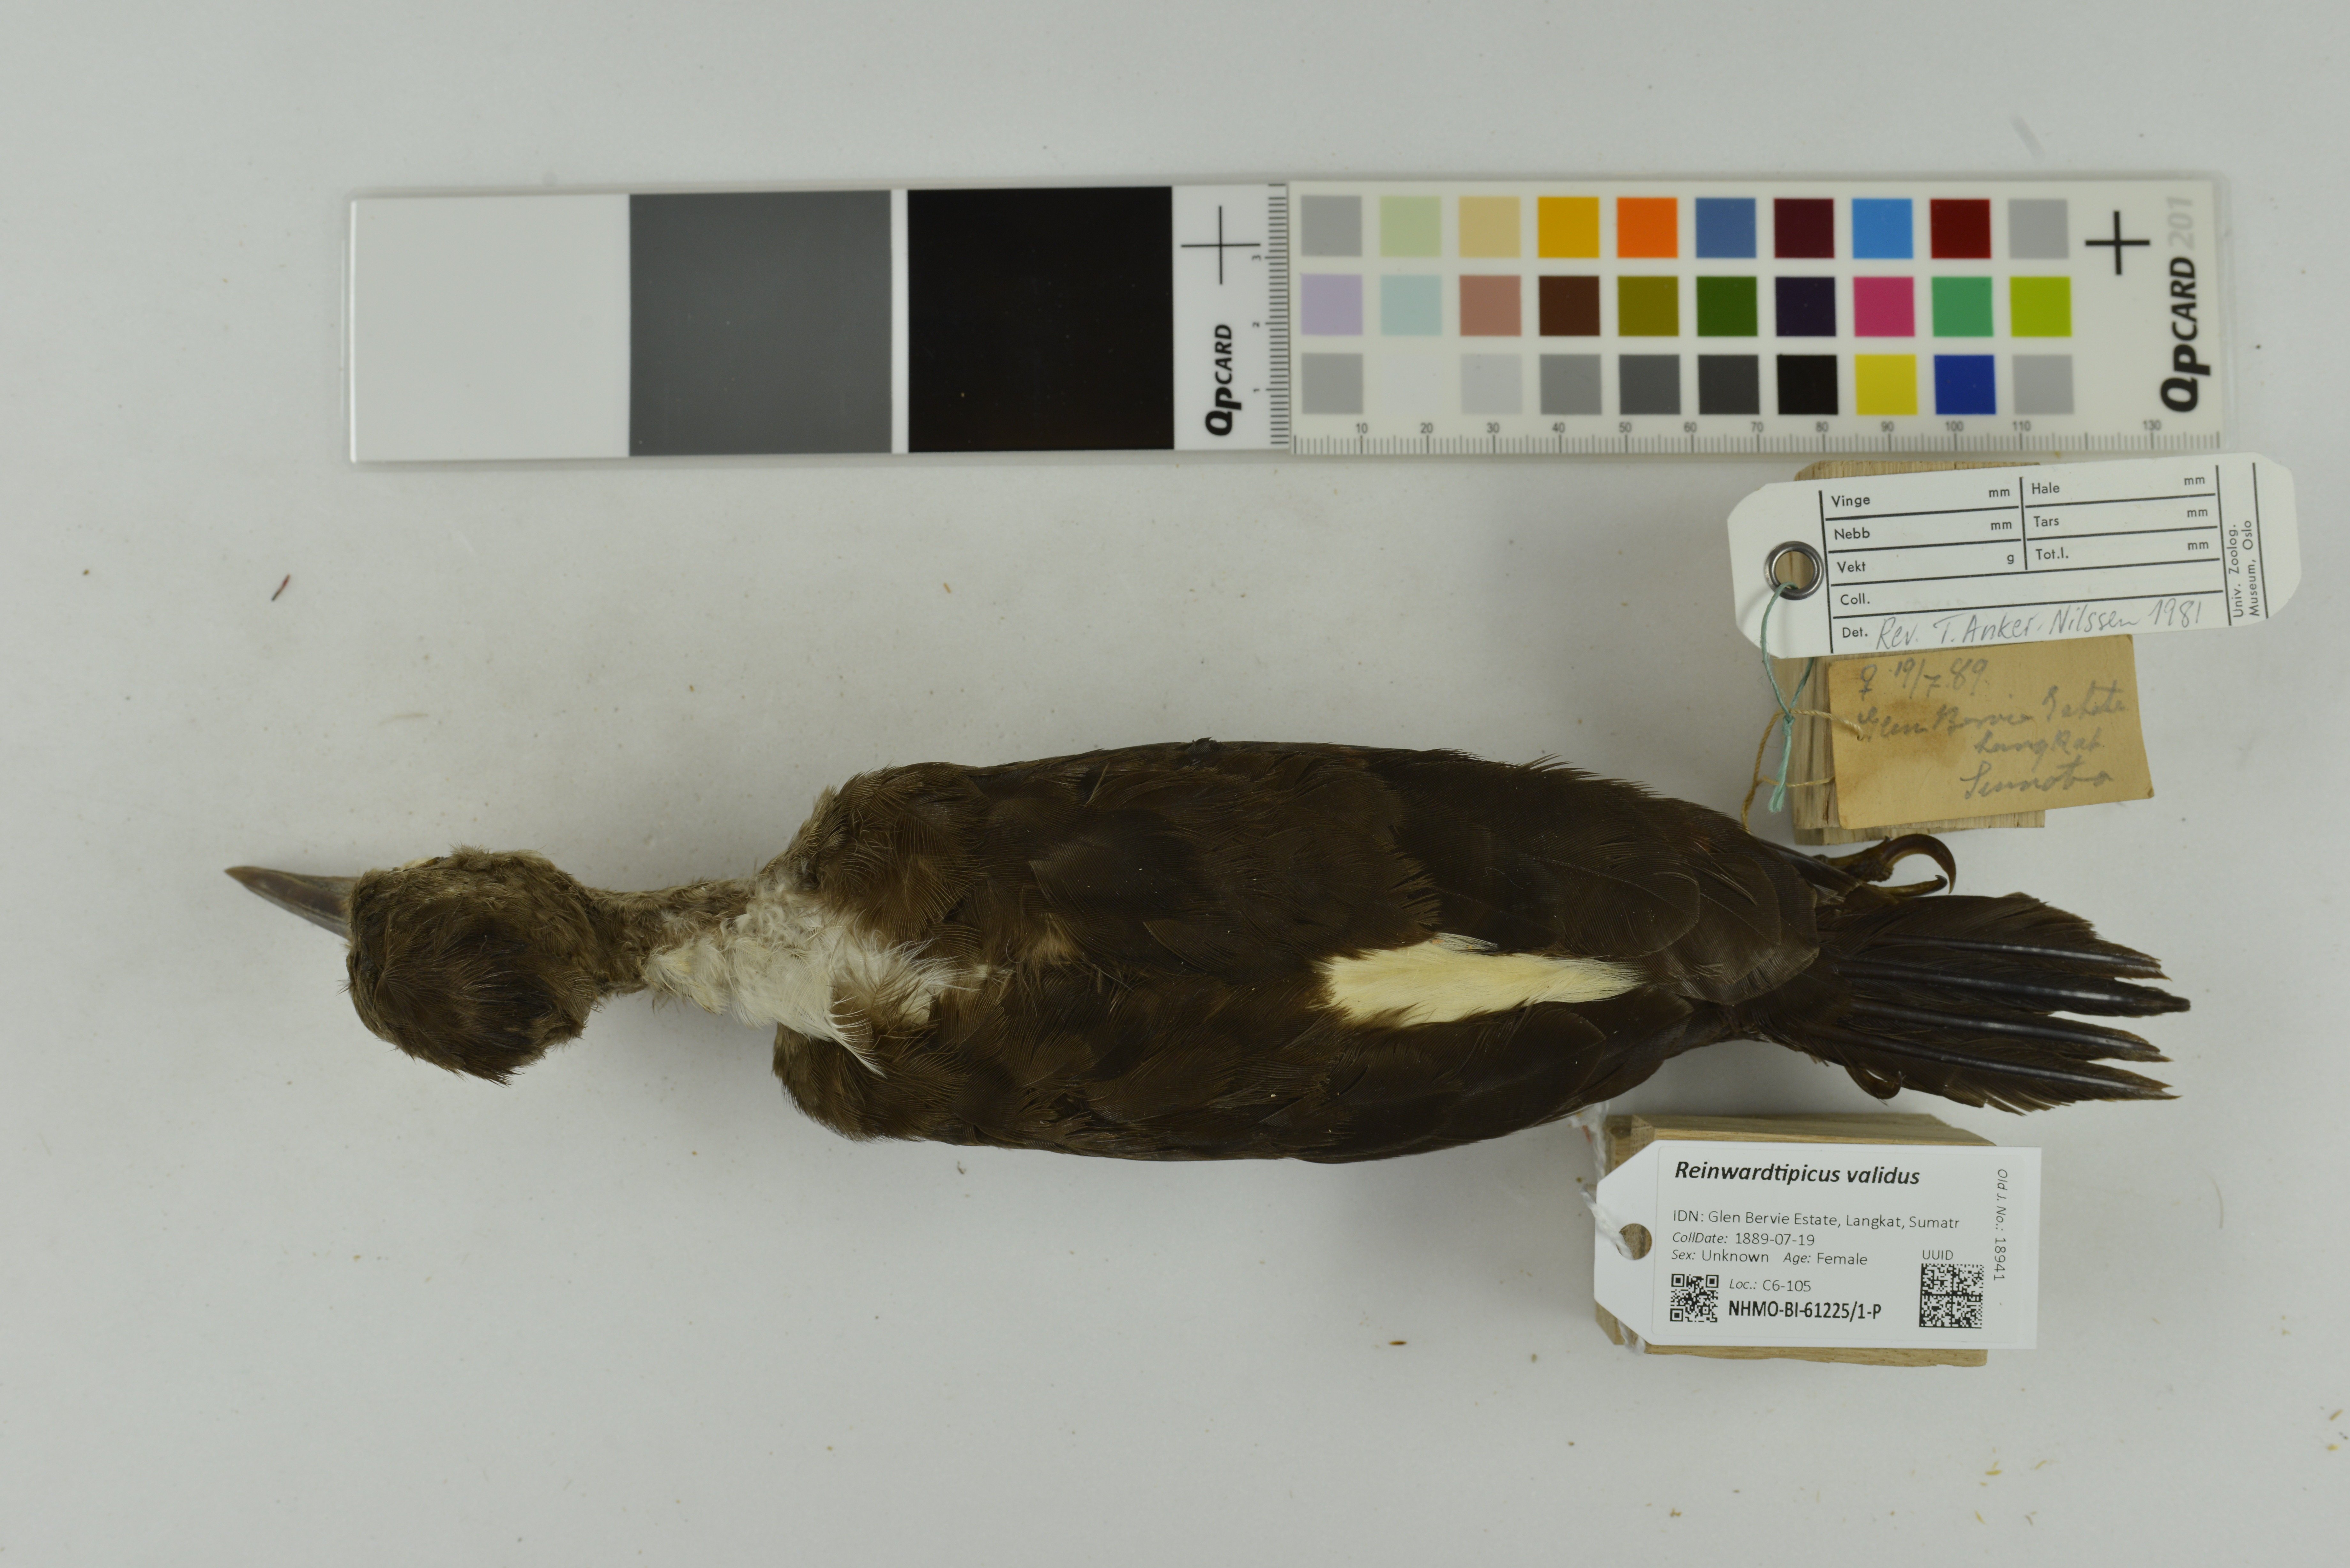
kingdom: Animalia
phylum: Chordata
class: Aves
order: Piciformes
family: Picidae
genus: Reinwardtipicus
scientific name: Reinwardtipicus validus
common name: Orange-backed woodpecker
